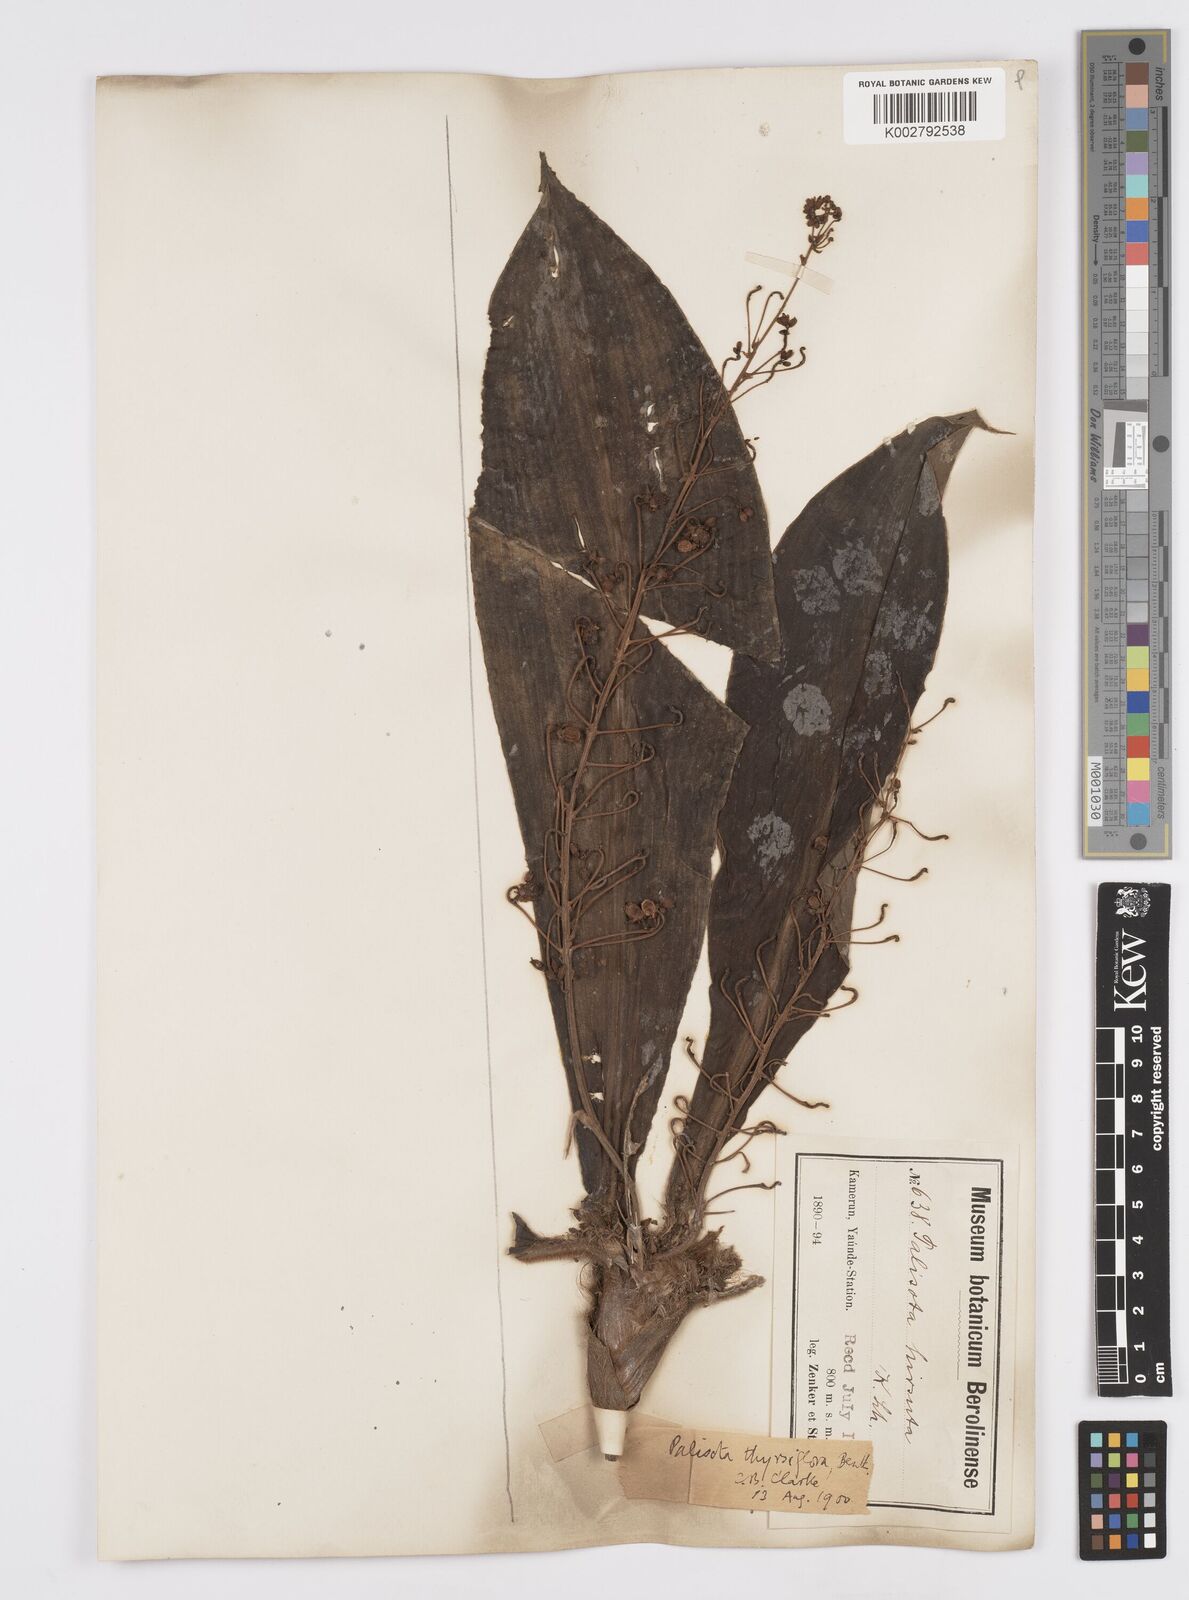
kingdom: Plantae
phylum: Tracheophyta
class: Liliopsida
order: Commelinales
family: Commelinaceae
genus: Palisota
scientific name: Palisota hirsuta
